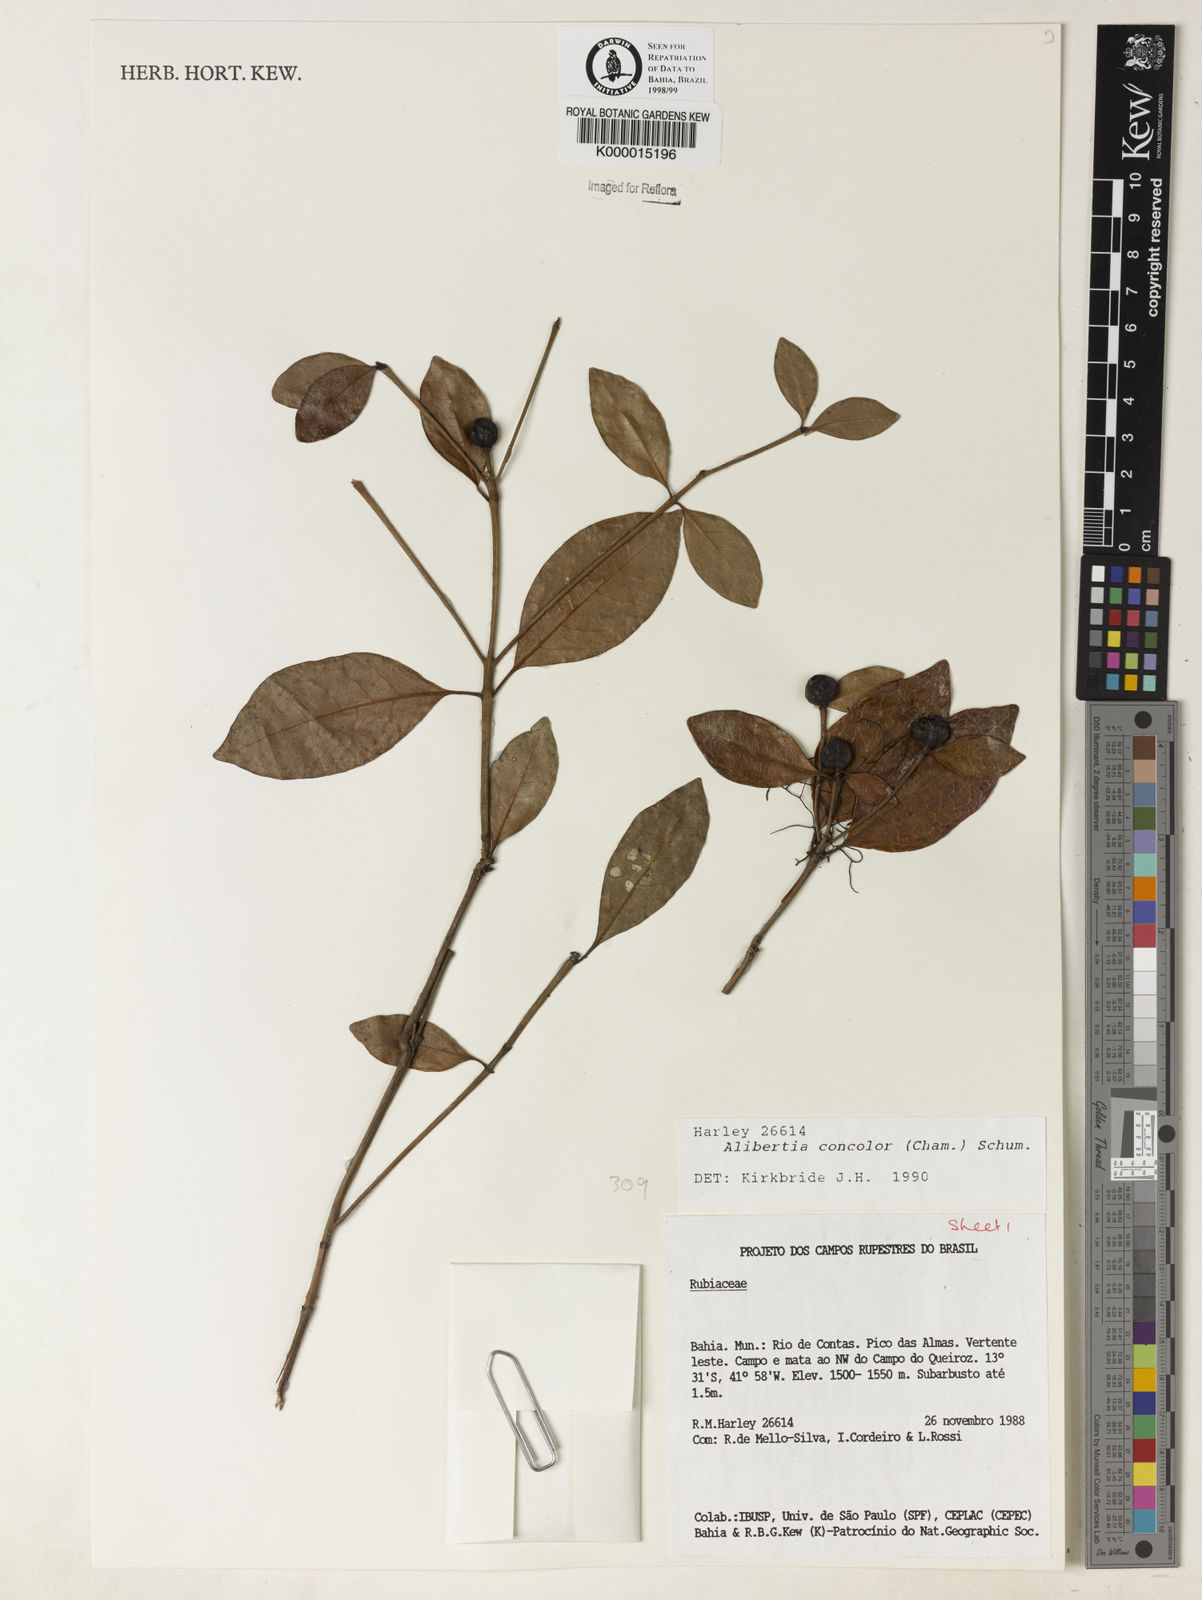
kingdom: Plantae
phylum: Tracheophyta
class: Magnoliopsida
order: Gentianales
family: Rubiaceae
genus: Cordiera
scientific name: Cordiera concolor
